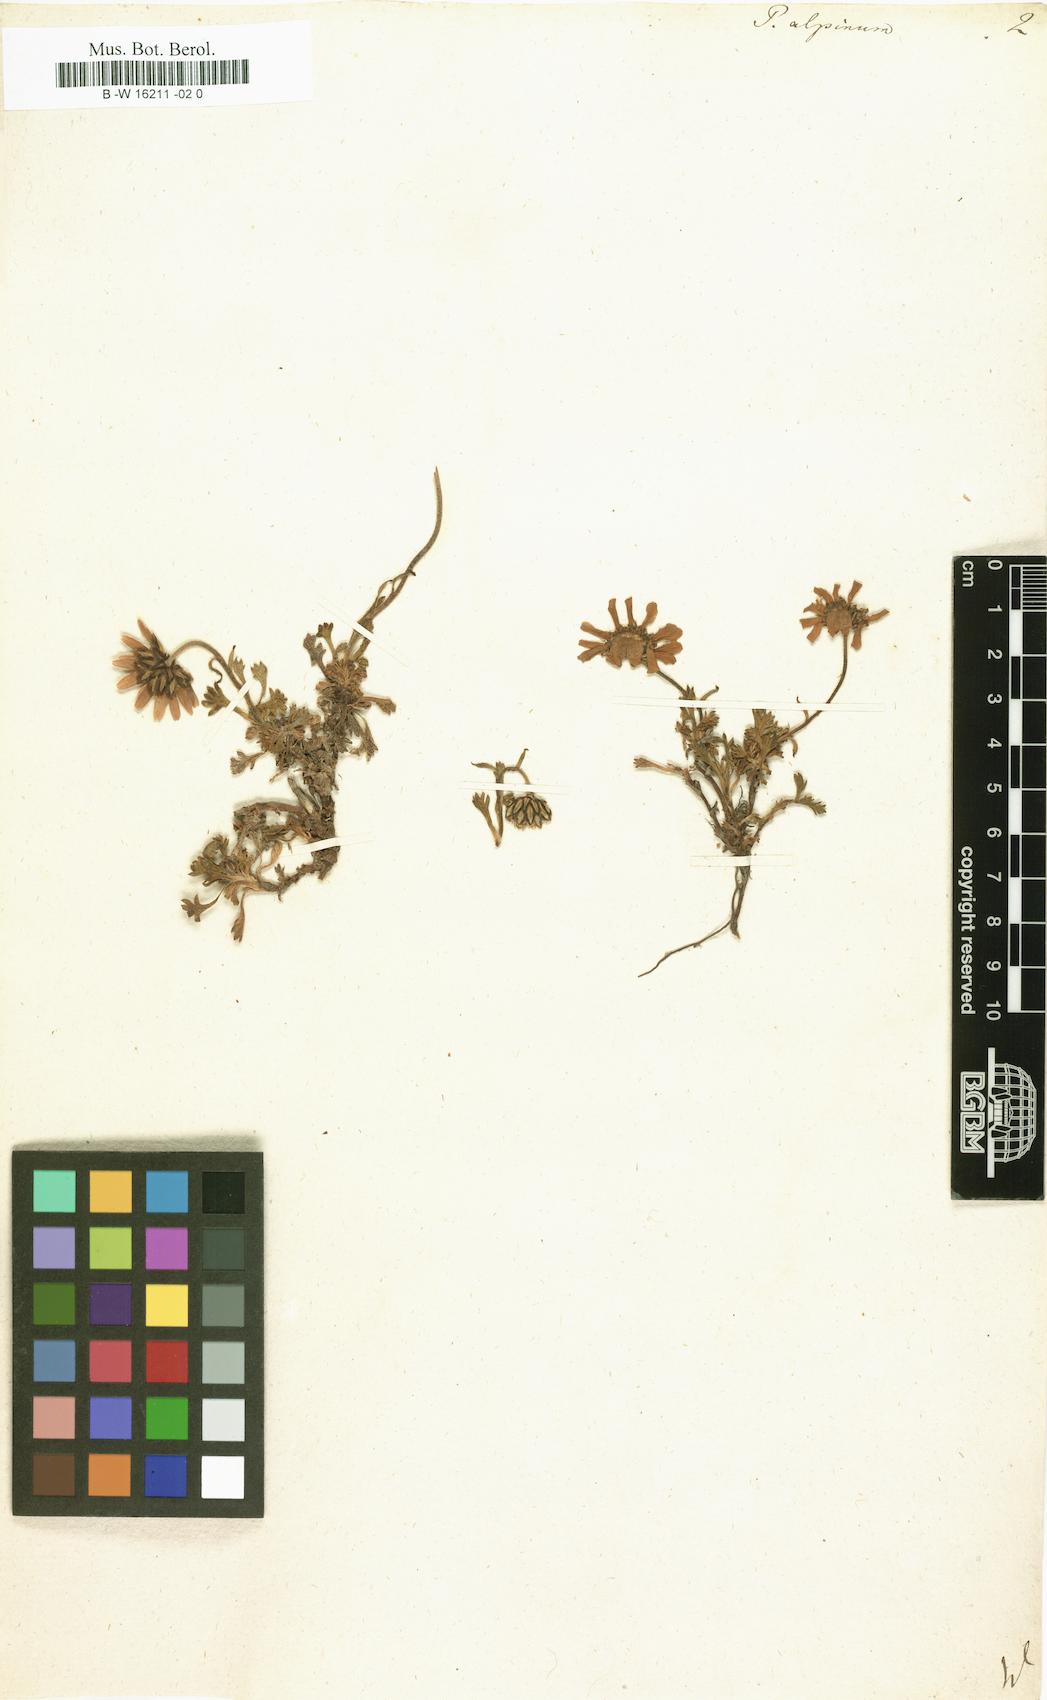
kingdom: Plantae
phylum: Tracheophyta
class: Magnoliopsida
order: Asterales
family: Asteraceae
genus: Tanacetum
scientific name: Tanacetum Pyrethrum alpinum
